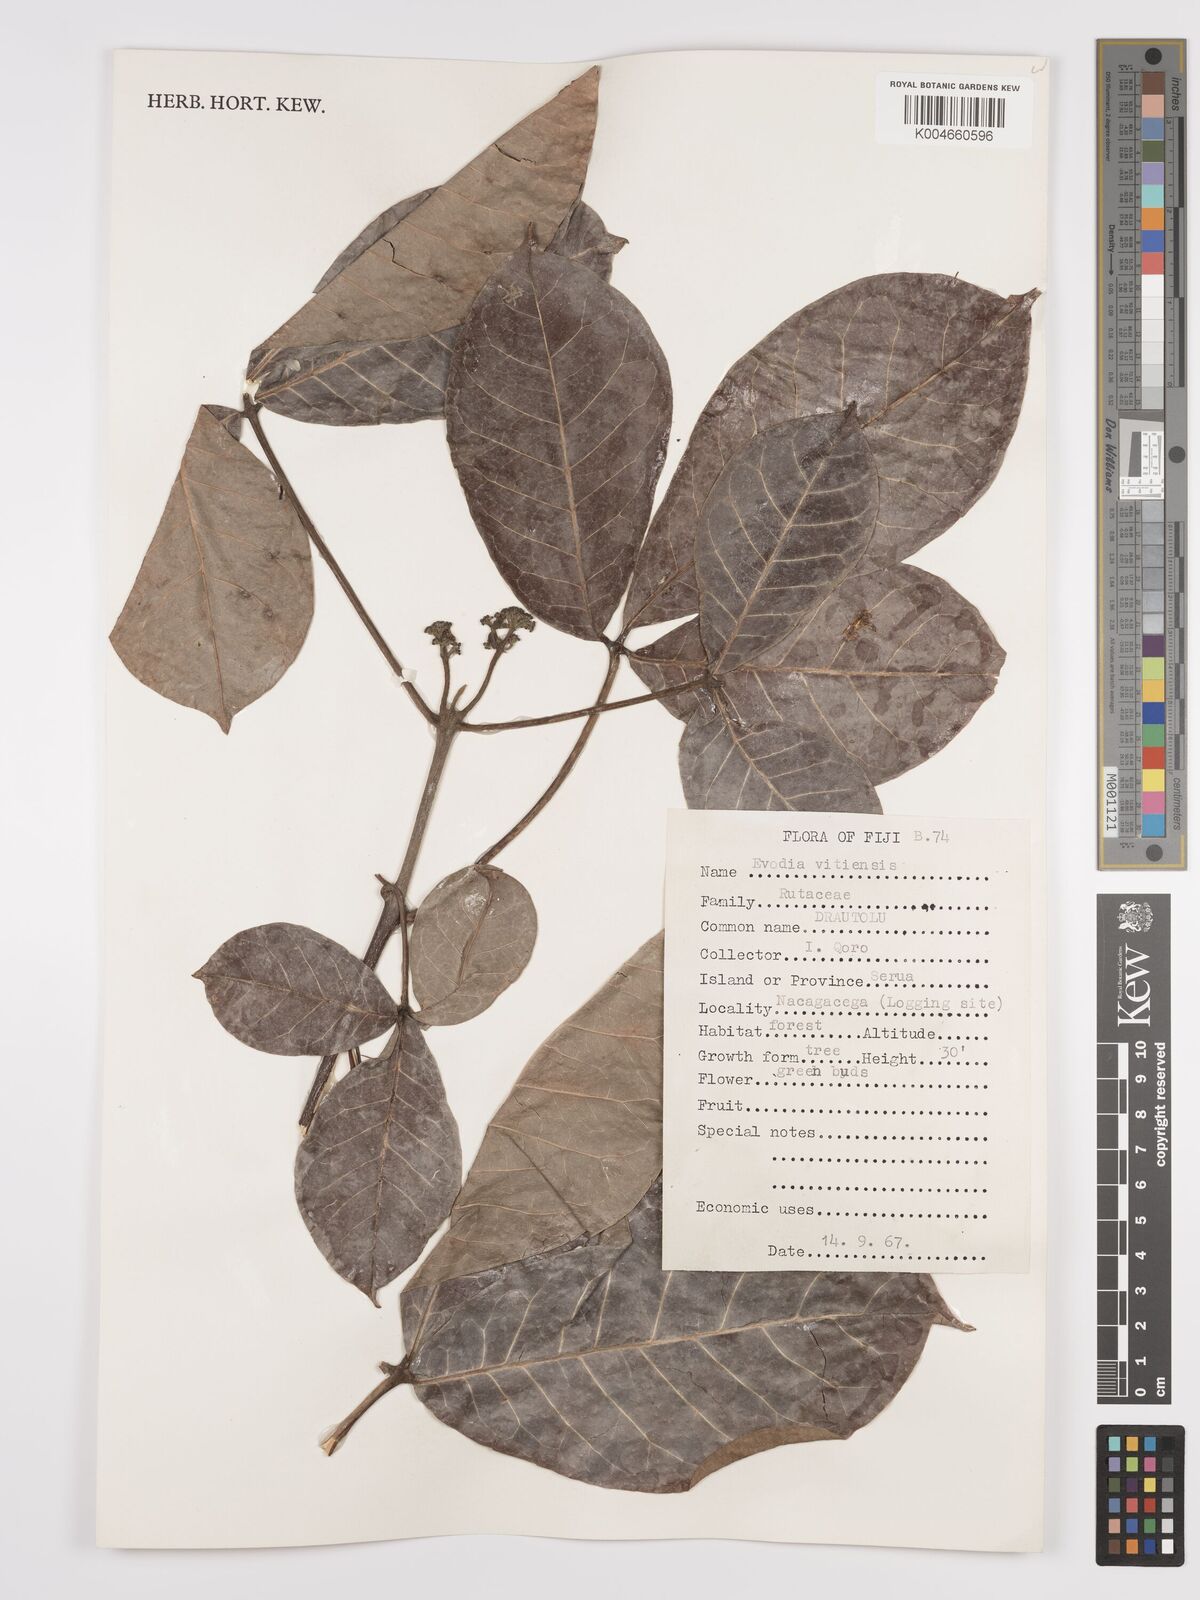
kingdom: Plantae
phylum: Tracheophyta
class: Magnoliopsida
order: Sapindales
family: Rutaceae
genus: Melicope
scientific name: Melicope cucullata
